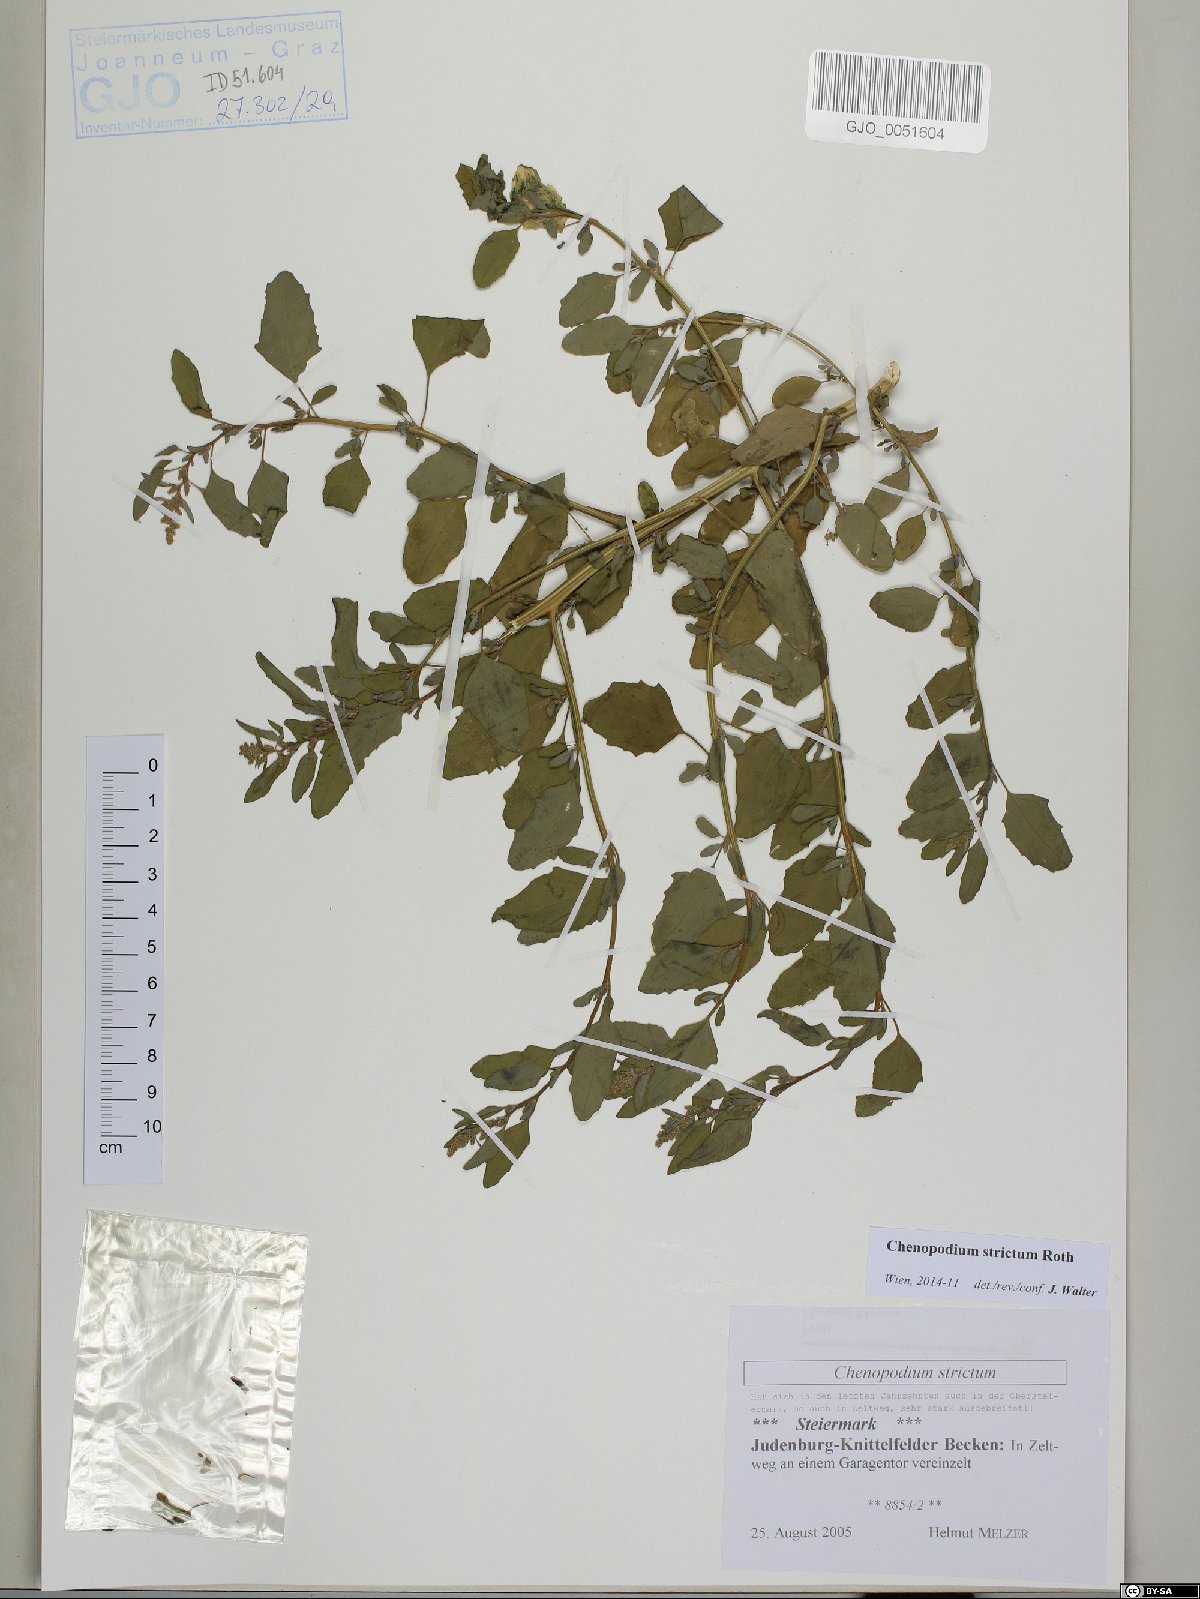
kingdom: Plantae
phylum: Tracheophyta
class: Magnoliopsida
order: Caryophyllales
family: Amaranthaceae
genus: Chenopodium
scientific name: Chenopodium album
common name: Fat-hen
